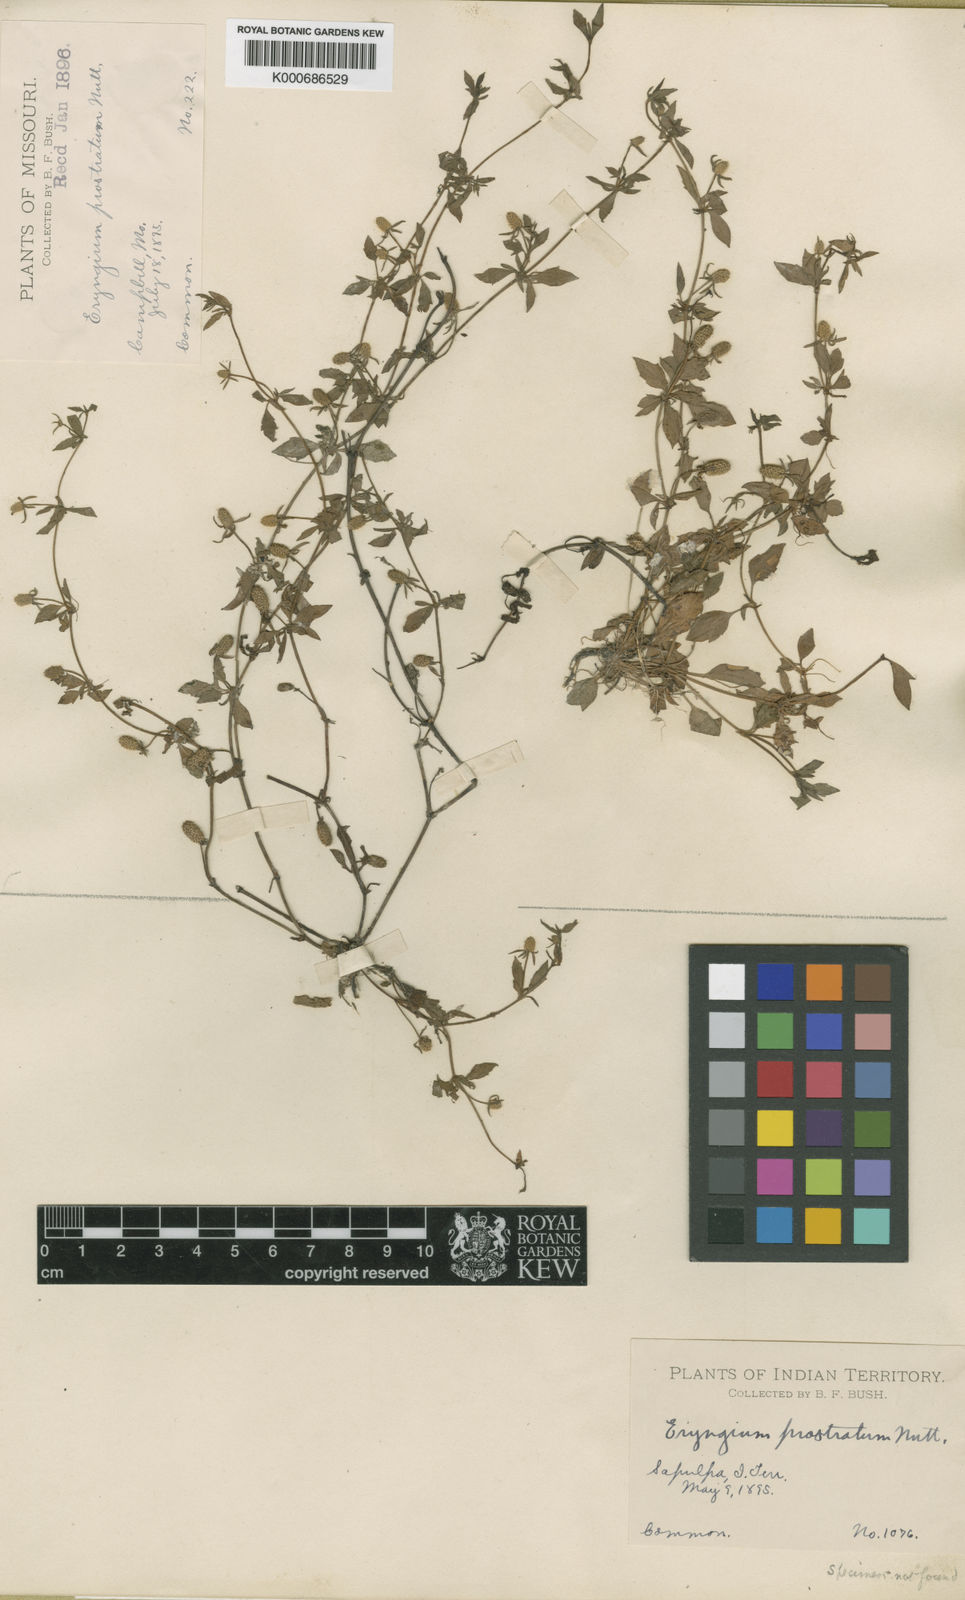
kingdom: Plantae
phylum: Tracheophyta
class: Magnoliopsida
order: Apiales
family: Apiaceae
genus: Eryngium
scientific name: Eryngium prostratum
